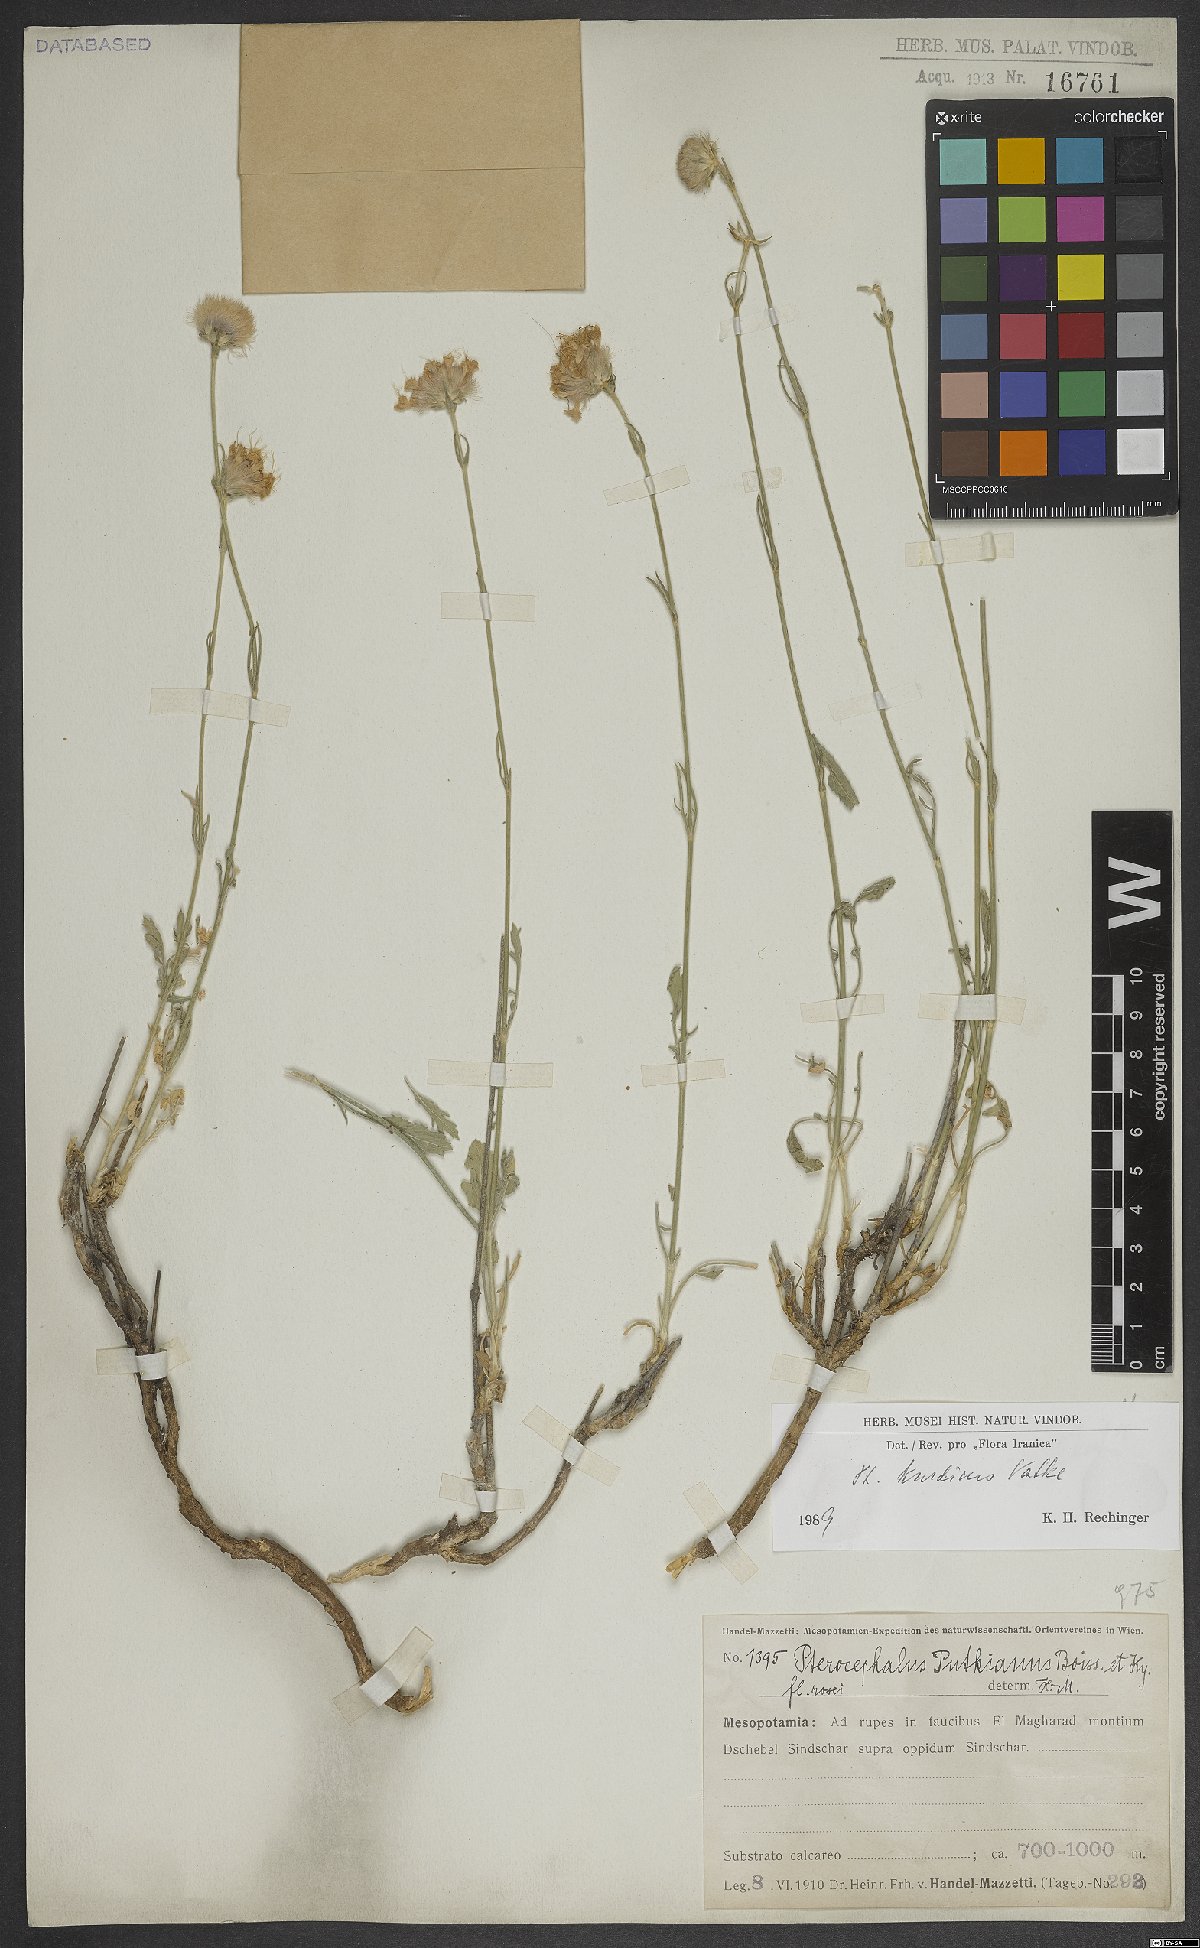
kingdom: Plantae
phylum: Tracheophyta
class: Magnoliopsida
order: Dipsacales
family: Caprifoliaceae
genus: Pterocephalus
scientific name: Pterocephalus kurdicus
